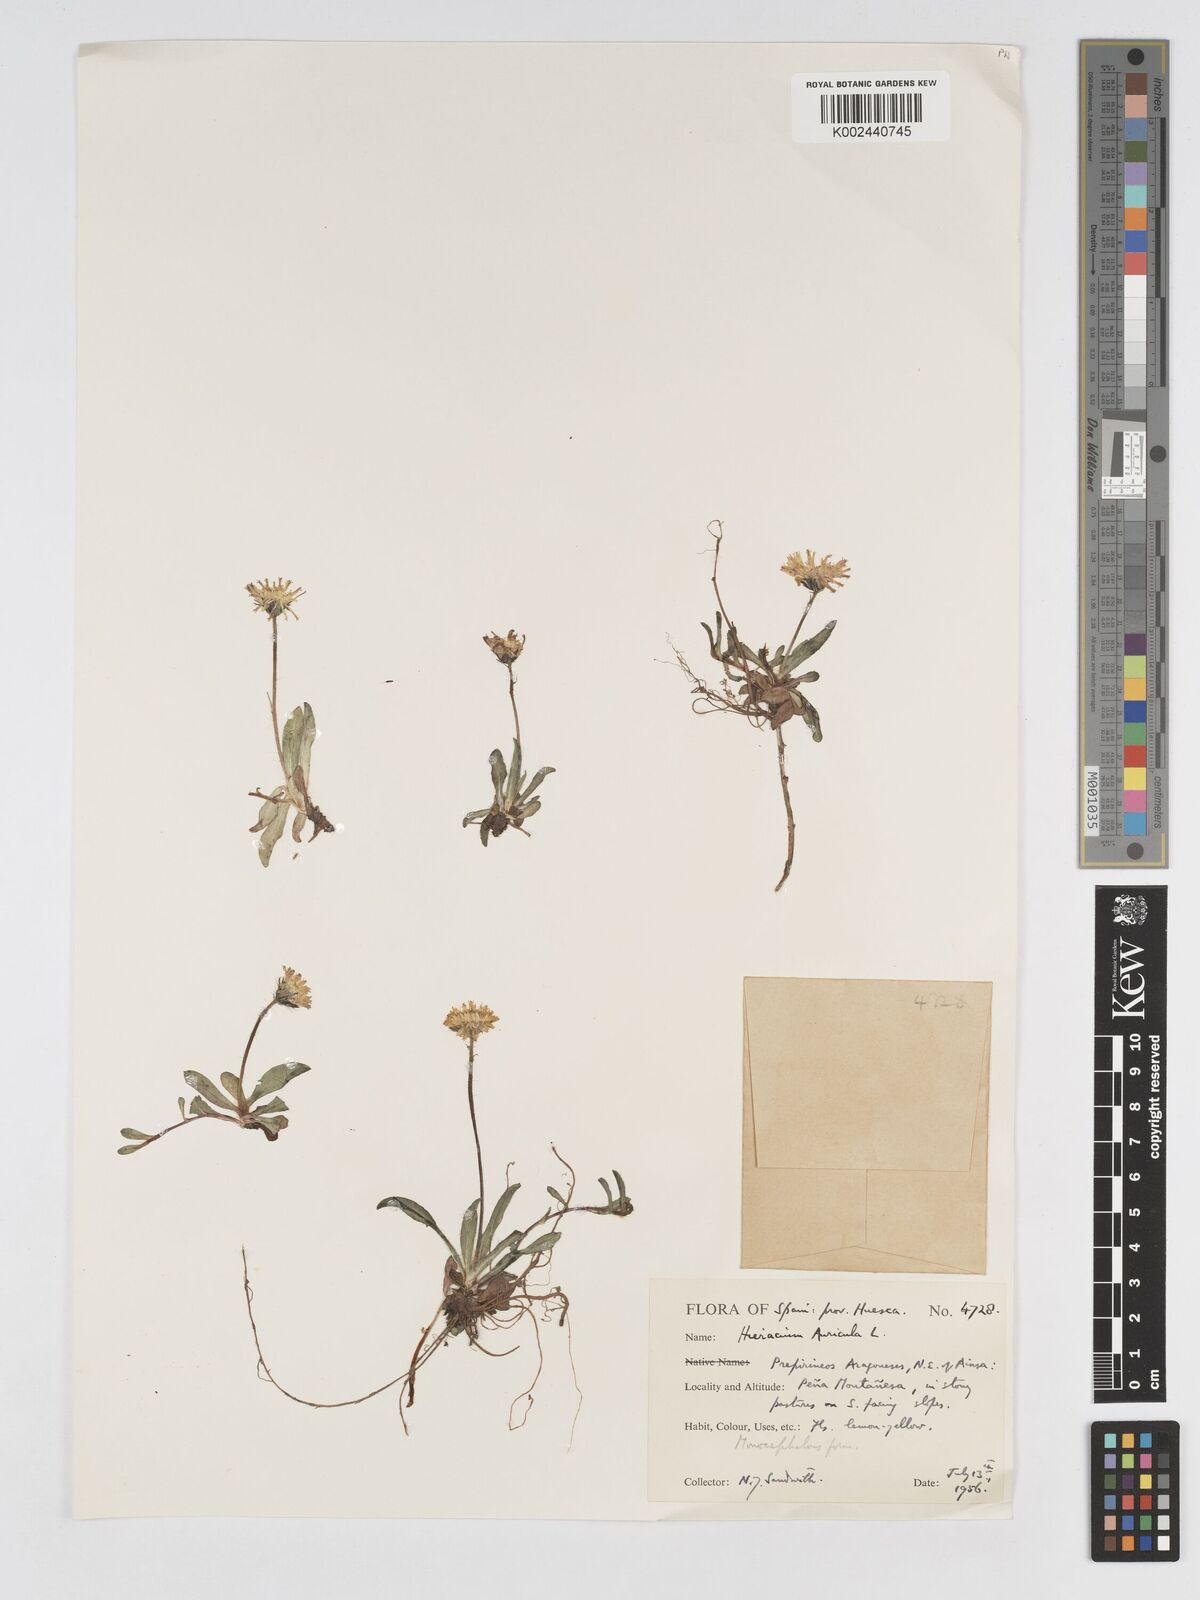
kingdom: Plantae
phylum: Tracheophyta
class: Magnoliopsida
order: Asterales
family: Asteraceae
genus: Pilosella
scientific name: Pilosella floribunda
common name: Glaucous hawkweed
